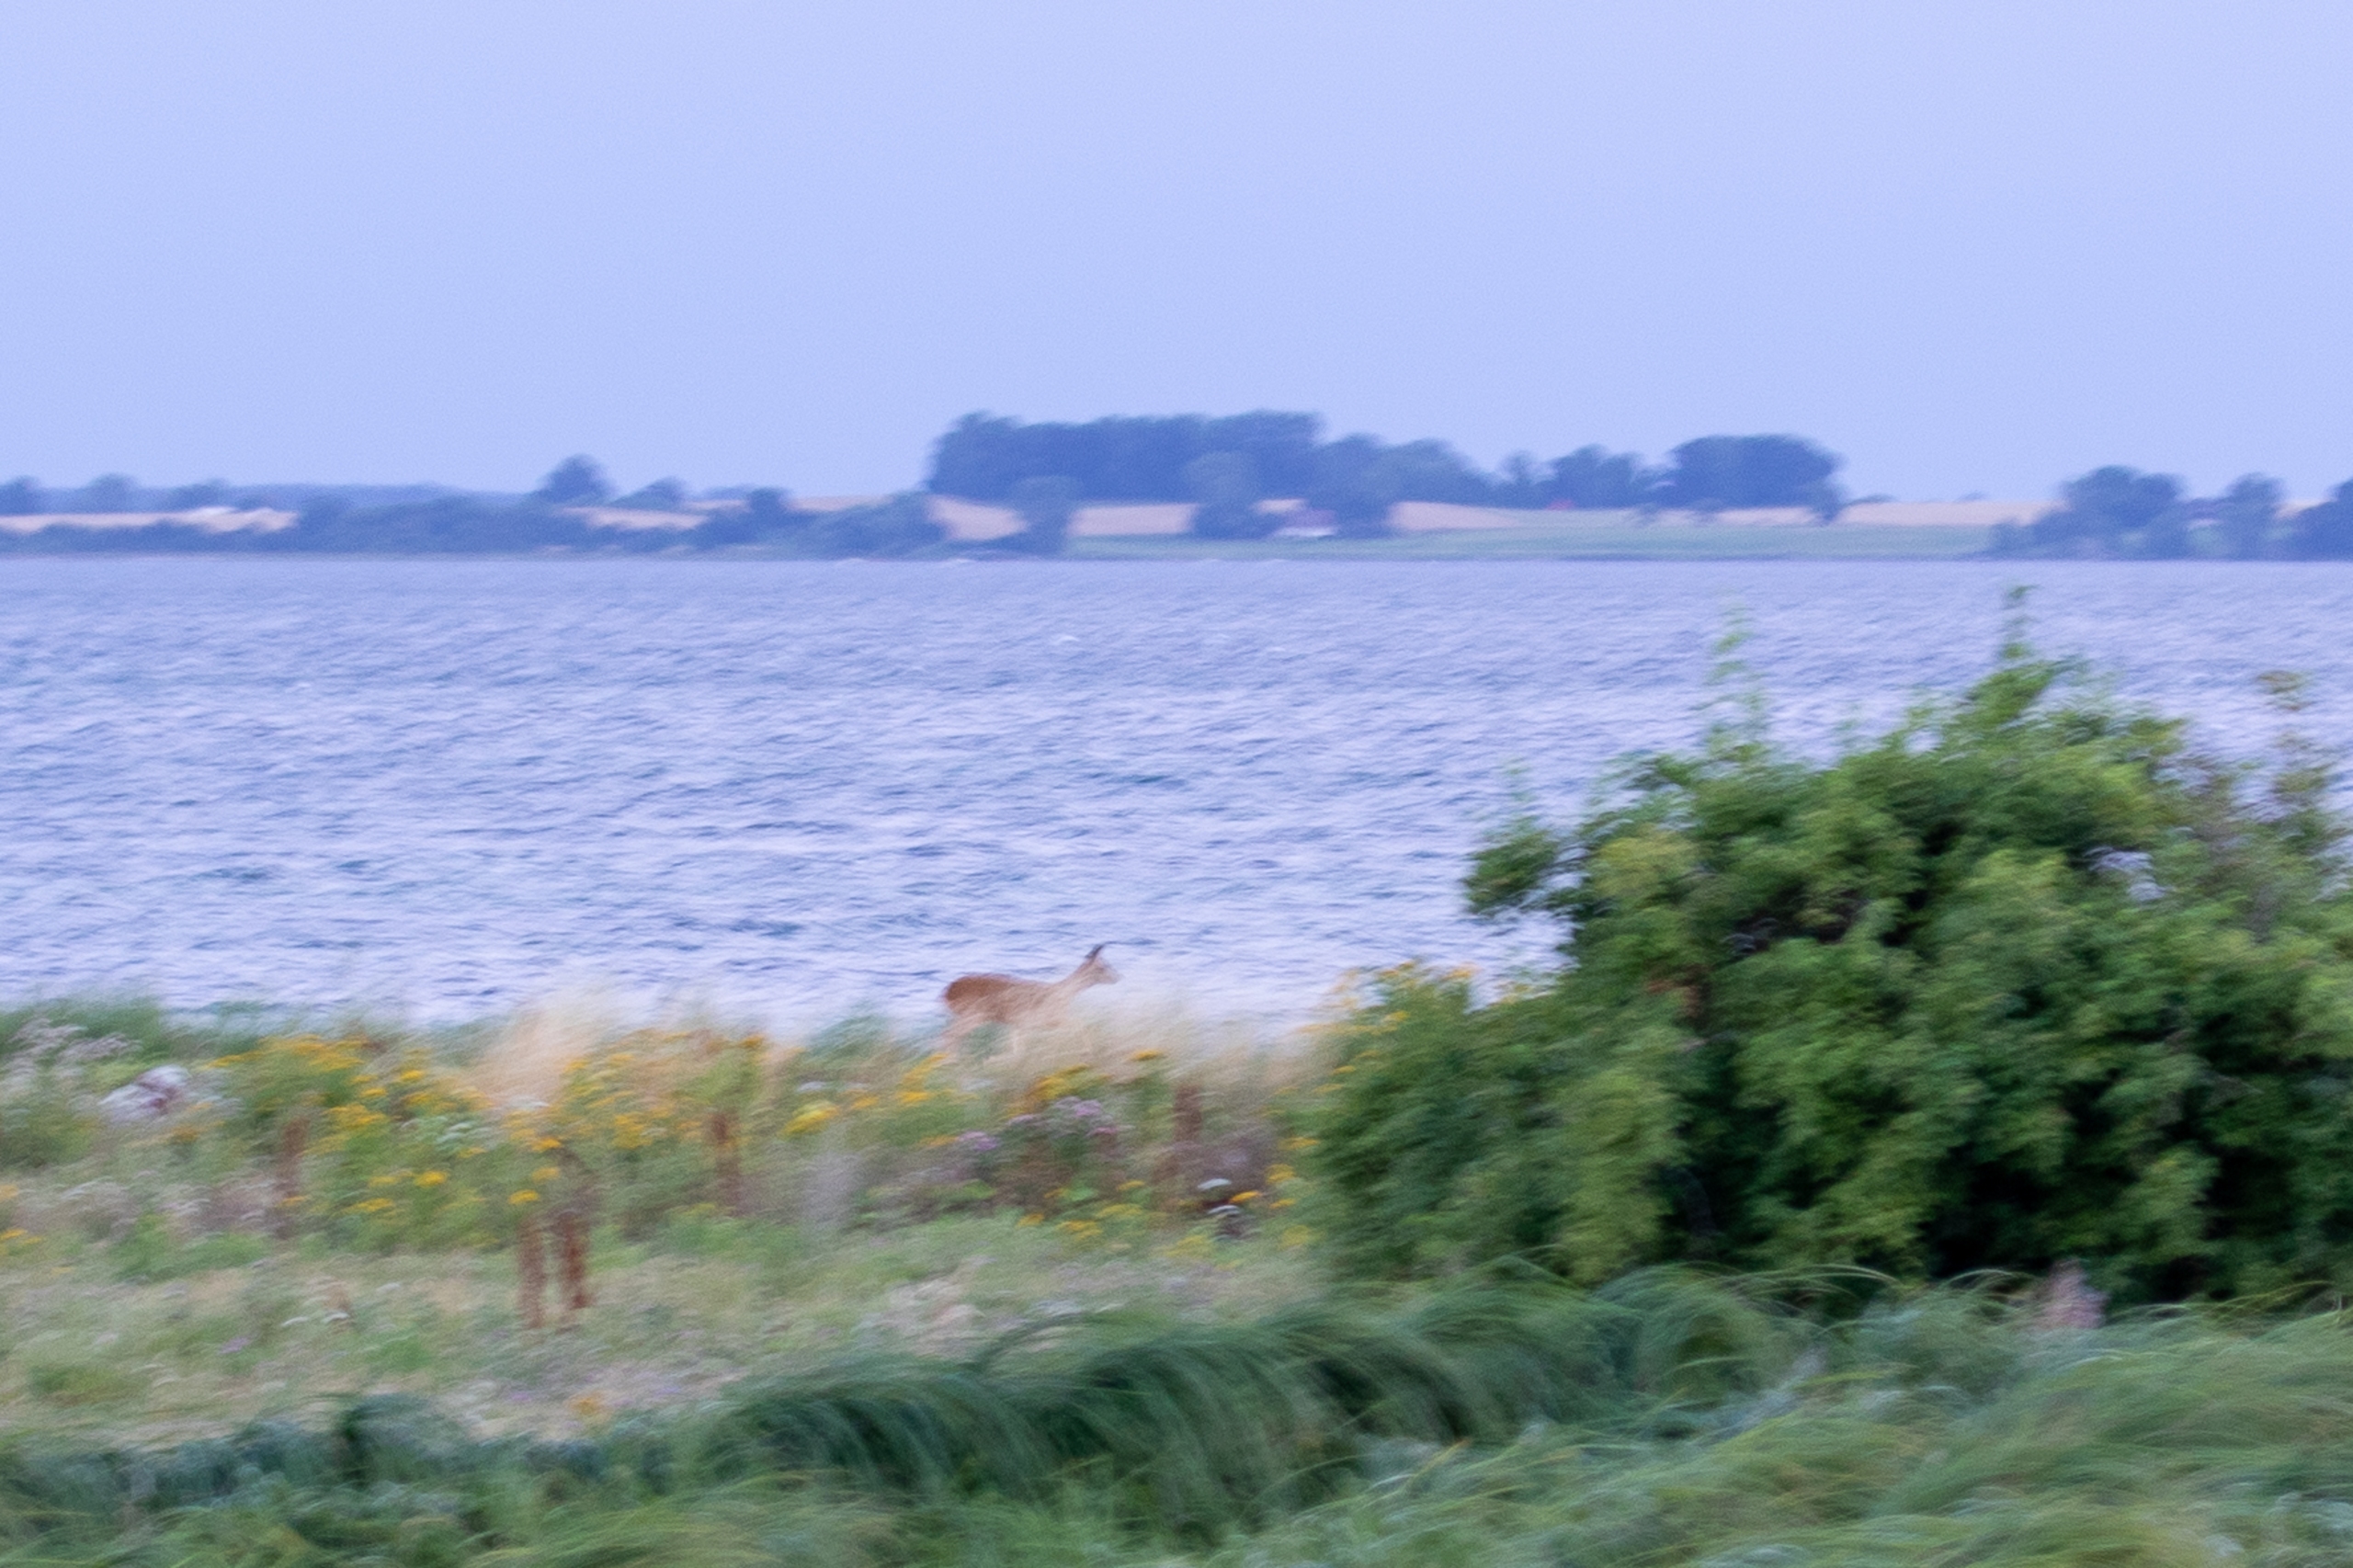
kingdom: Animalia
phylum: Chordata
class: Mammalia
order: Artiodactyla
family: Cervidae
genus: Capreolus
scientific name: Capreolus capreolus
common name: Rådyr
